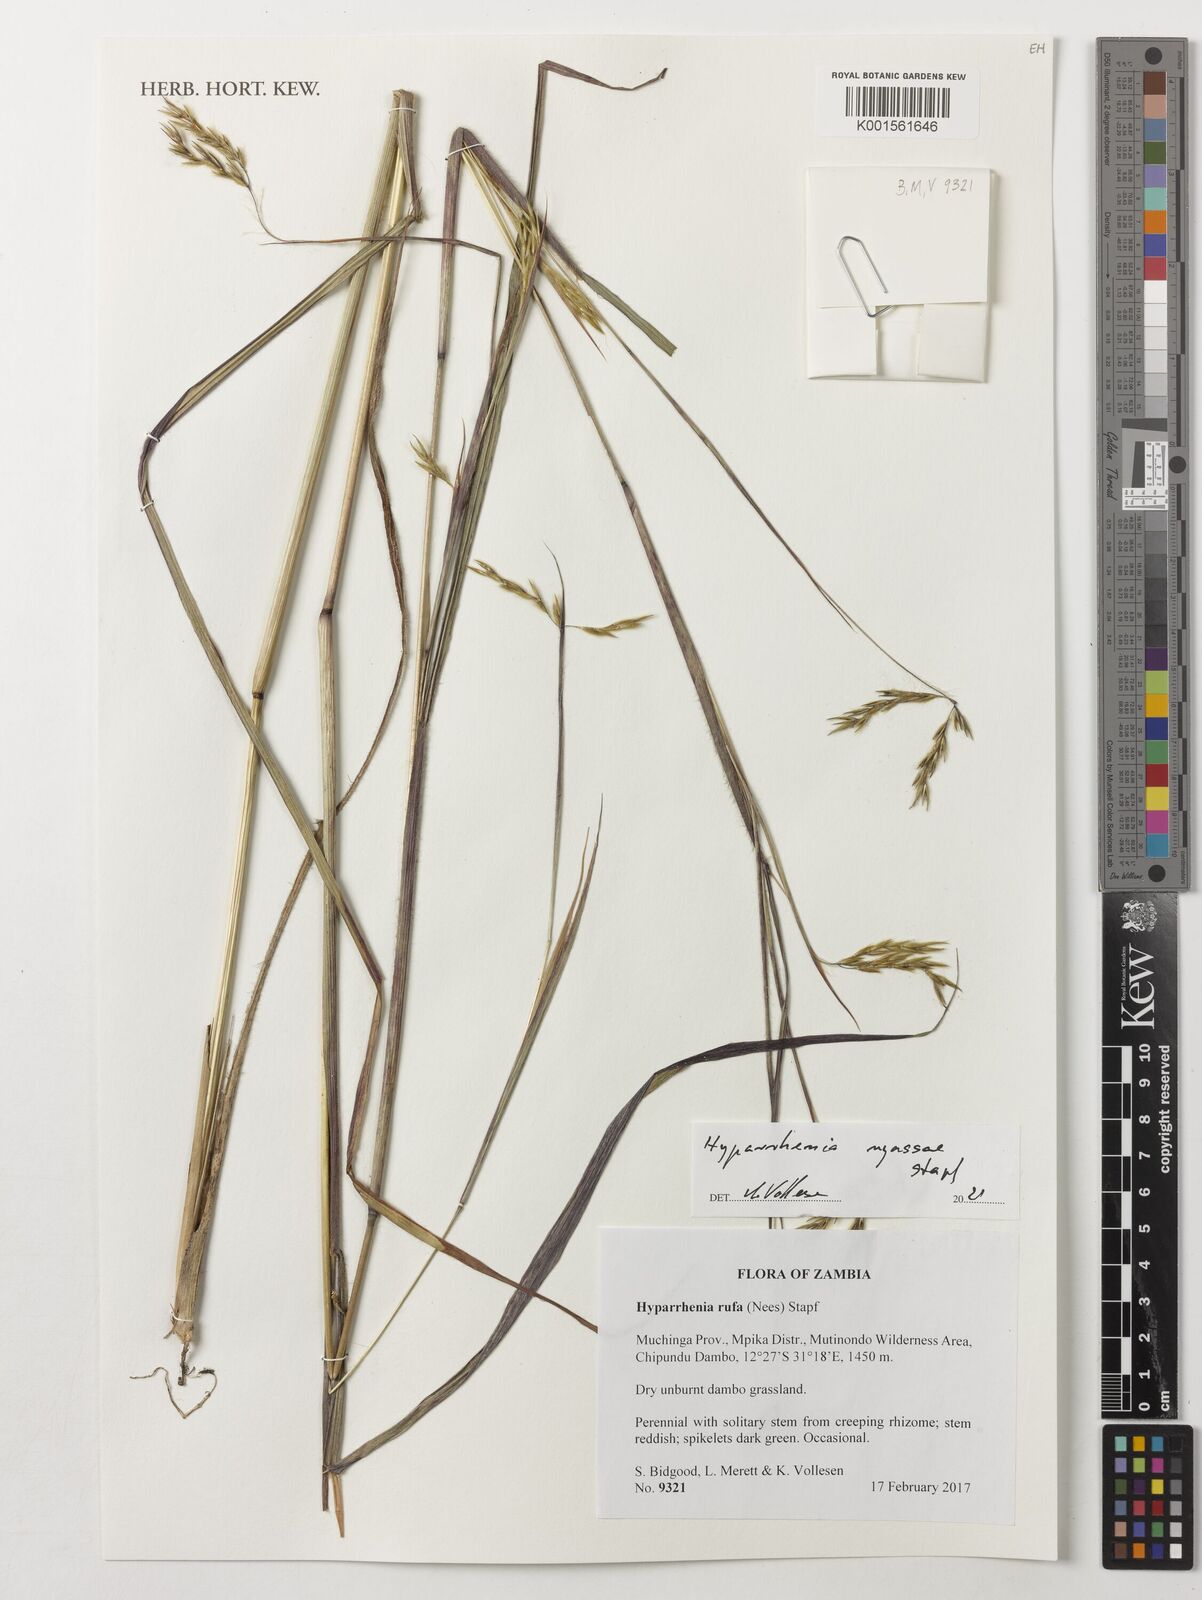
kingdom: Plantae
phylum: Tracheophyta
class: Liliopsida
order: Poales
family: Poaceae
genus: Hyparrhenia
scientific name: Hyparrhenia nyassae
